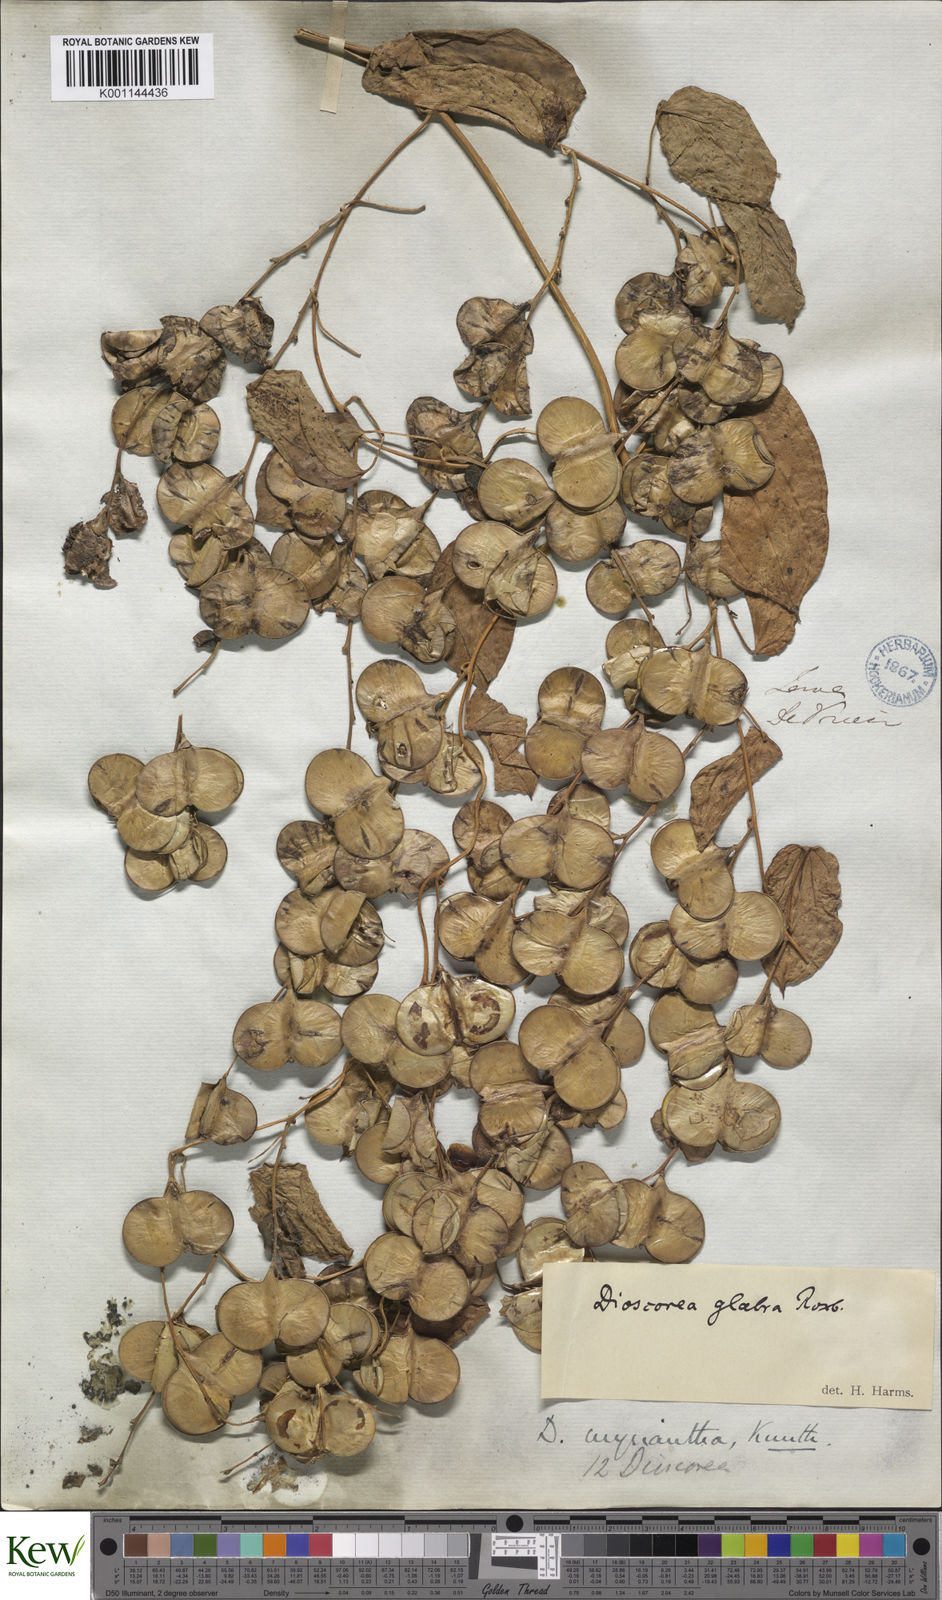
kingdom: Plantae
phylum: Tracheophyta
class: Liliopsida
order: Dioscoreales
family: Dioscoreaceae
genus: Dioscorea
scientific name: Dioscorea filiformis
